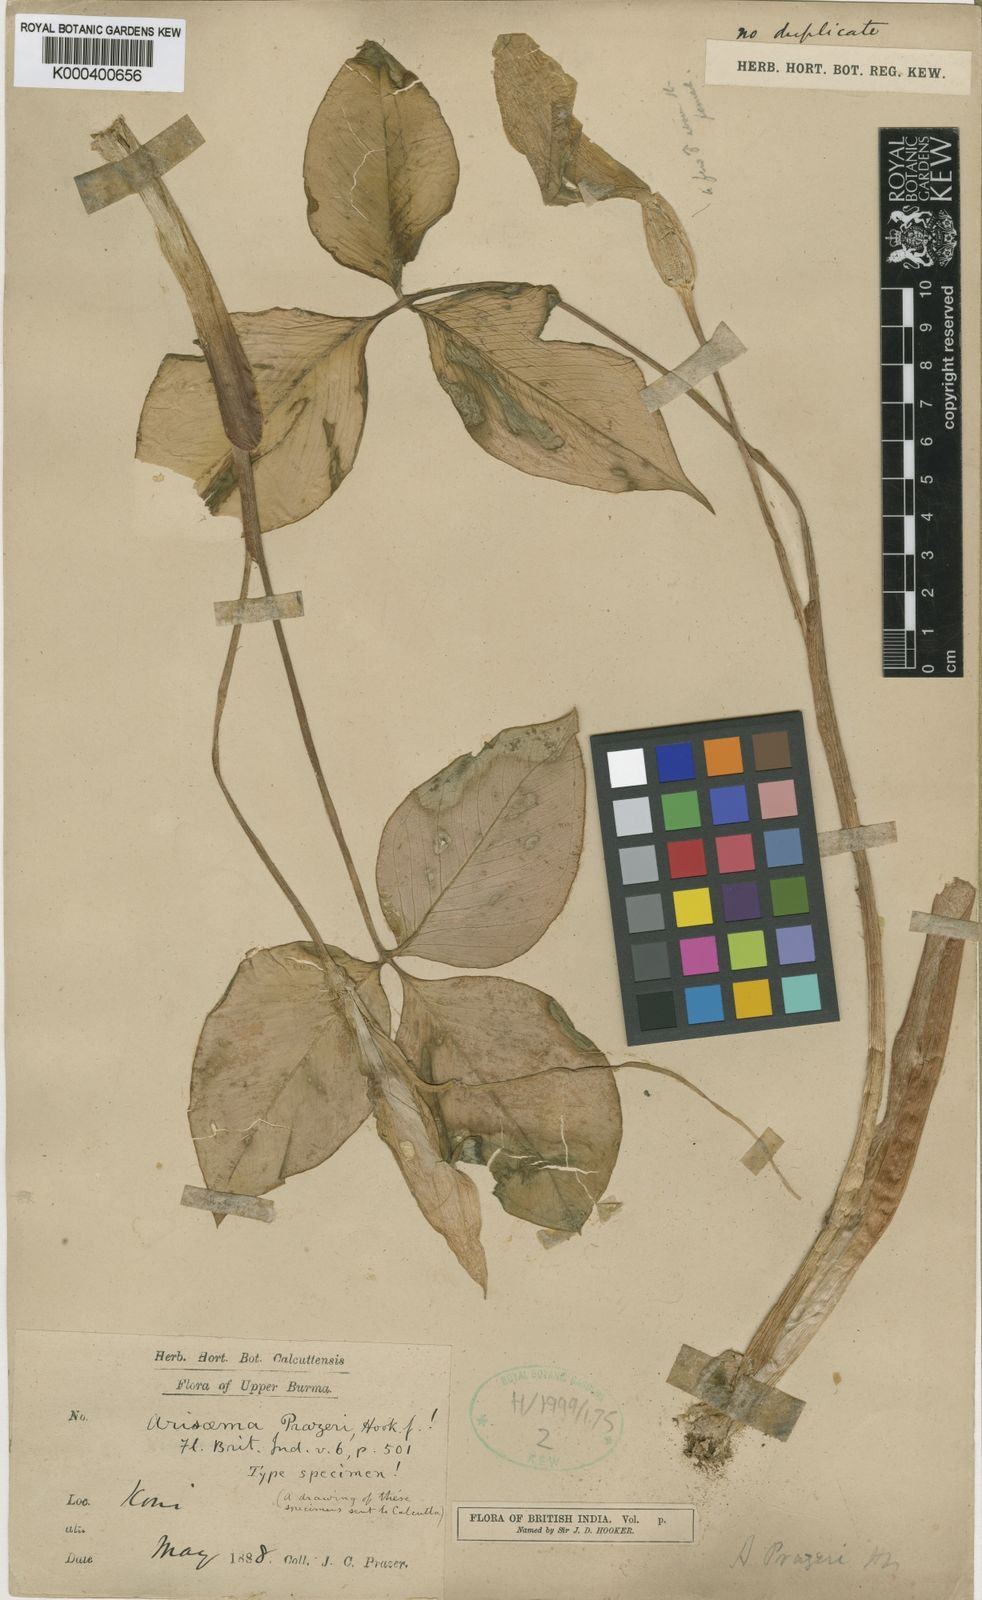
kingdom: Plantae
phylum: Tracheophyta
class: Liliopsida
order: Alismatales
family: Araceae
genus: Arisaema
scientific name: Arisaema prazeri
